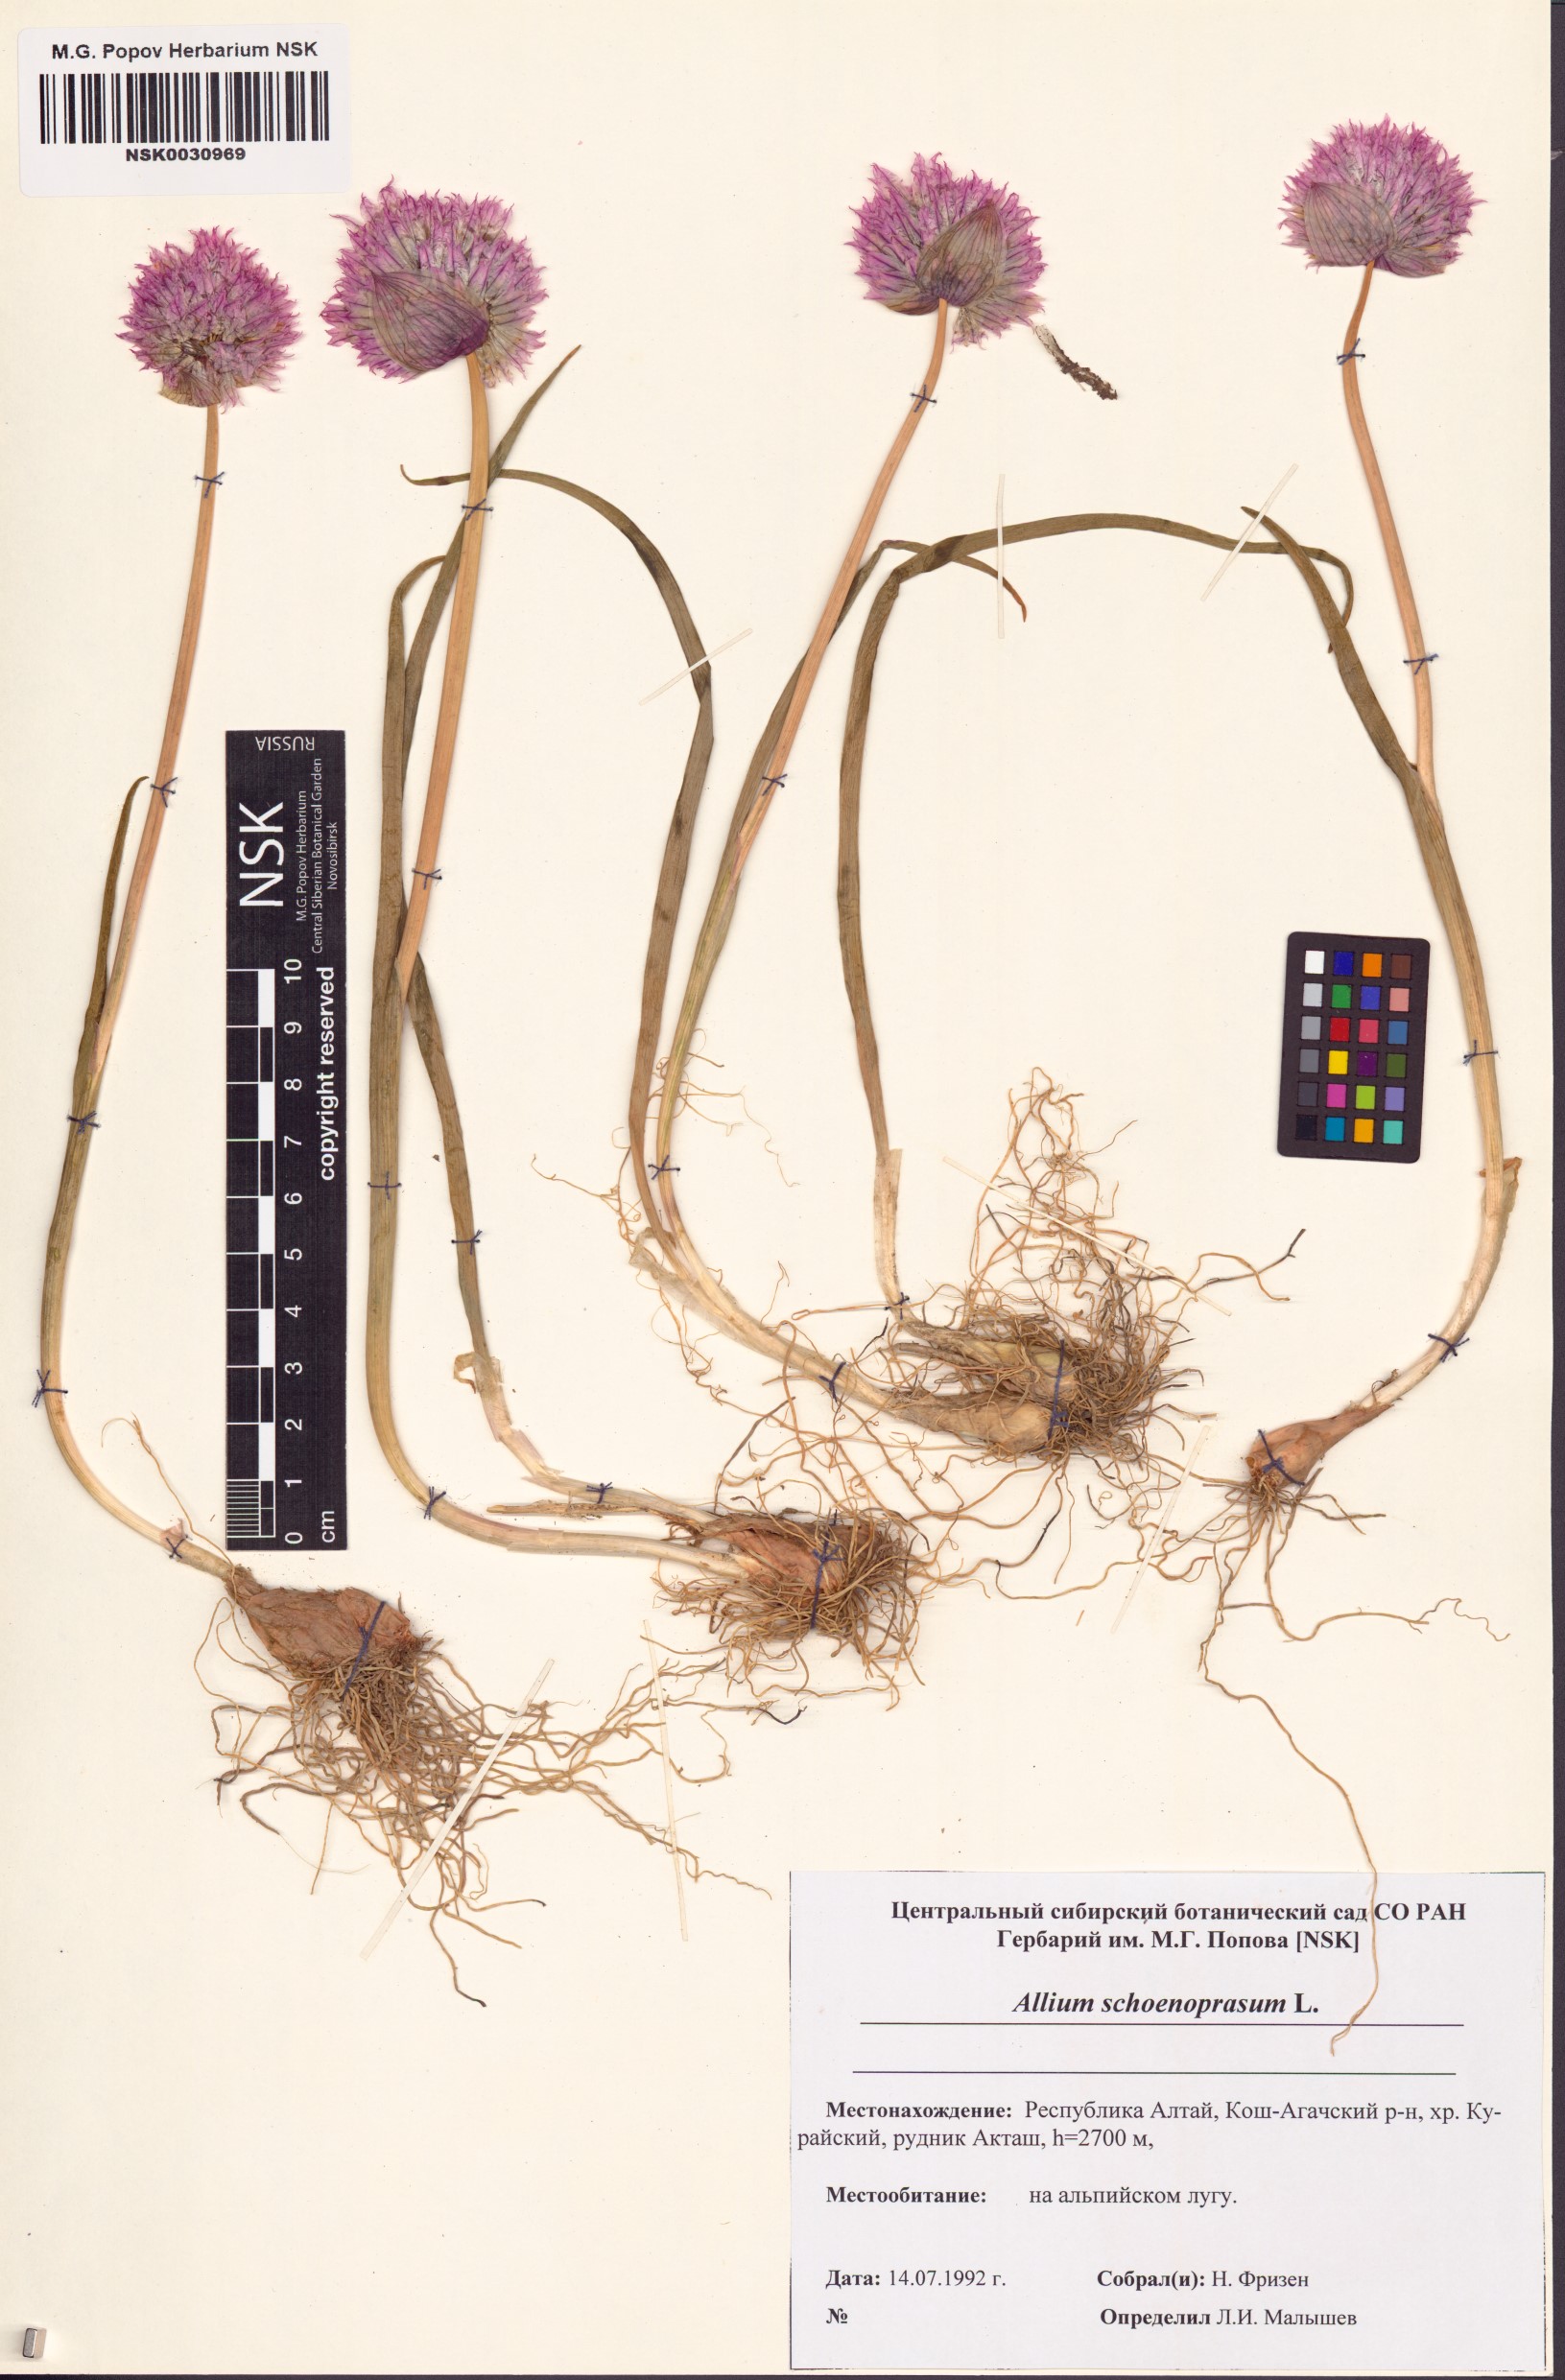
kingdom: Plantae
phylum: Tracheophyta
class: Liliopsida
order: Asparagales
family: Amaryllidaceae
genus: Allium
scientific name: Allium schoenoprasum
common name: Chives
